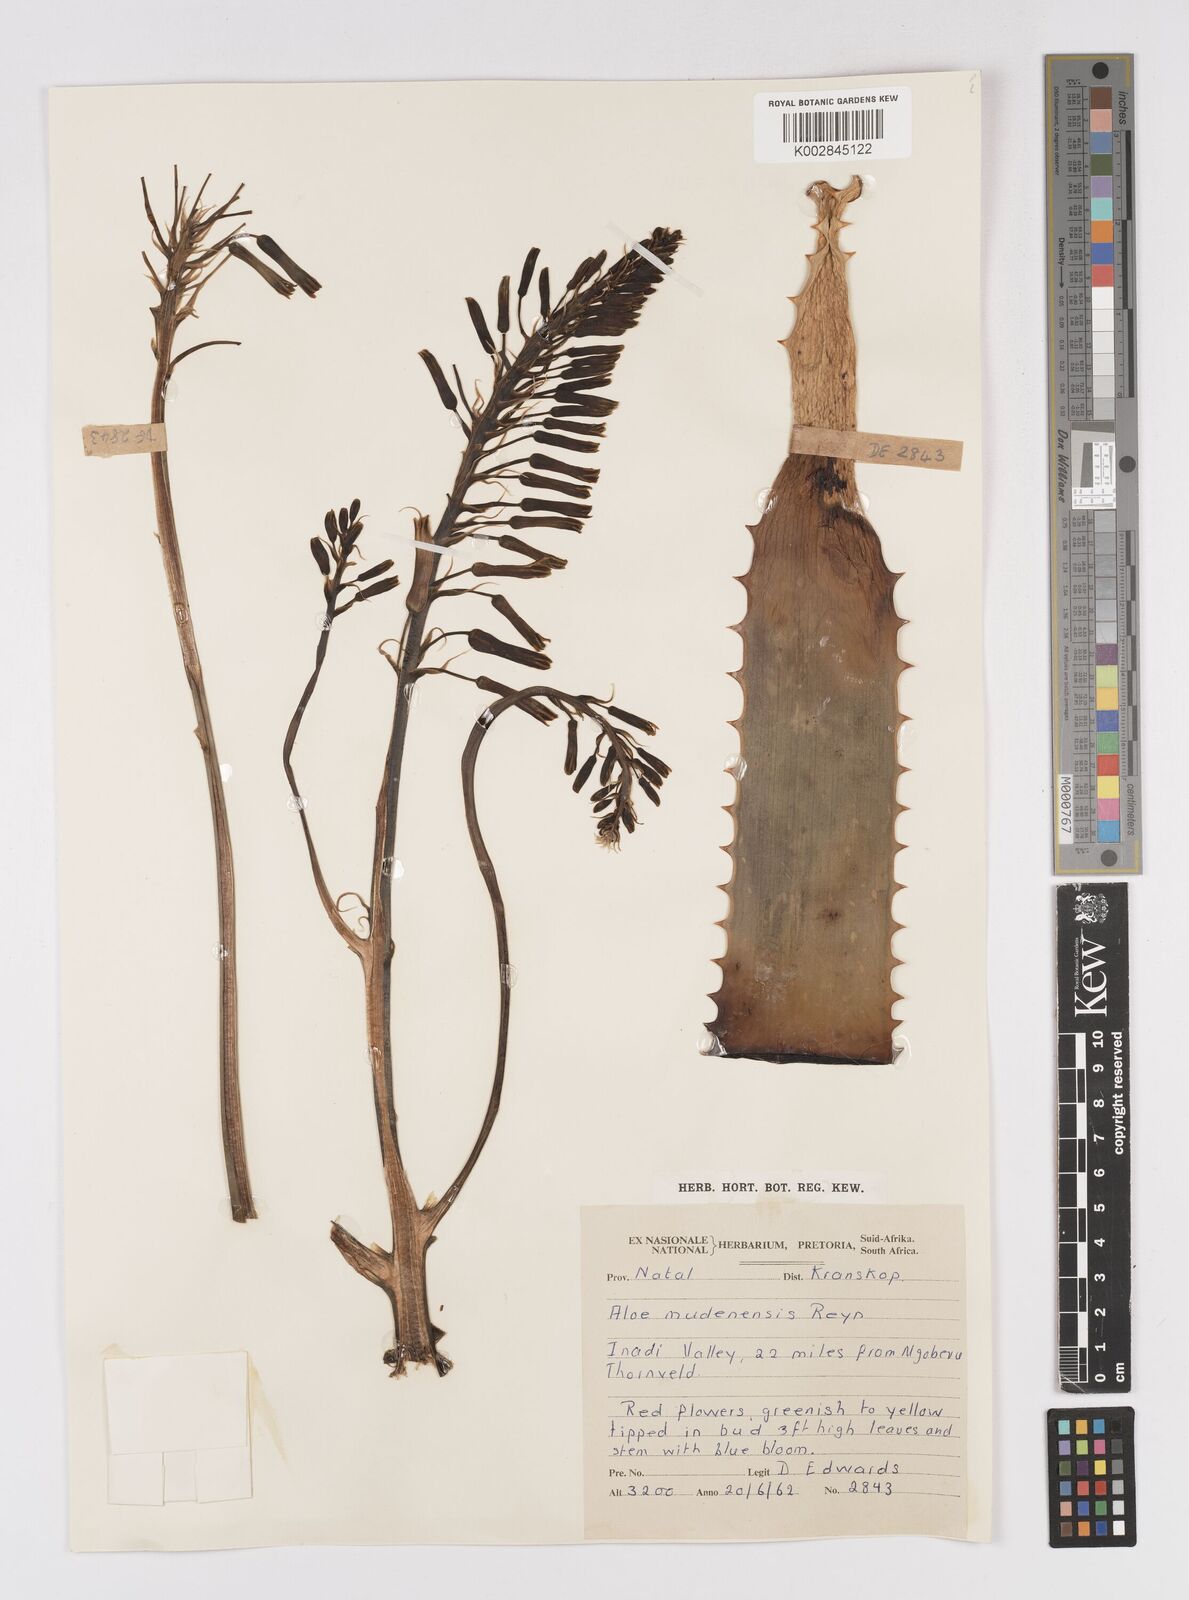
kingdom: Plantae
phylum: Tracheophyta
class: Liliopsida
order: Asparagales
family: Asphodelaceae
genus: Aloe
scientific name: Aloe mudenensis
